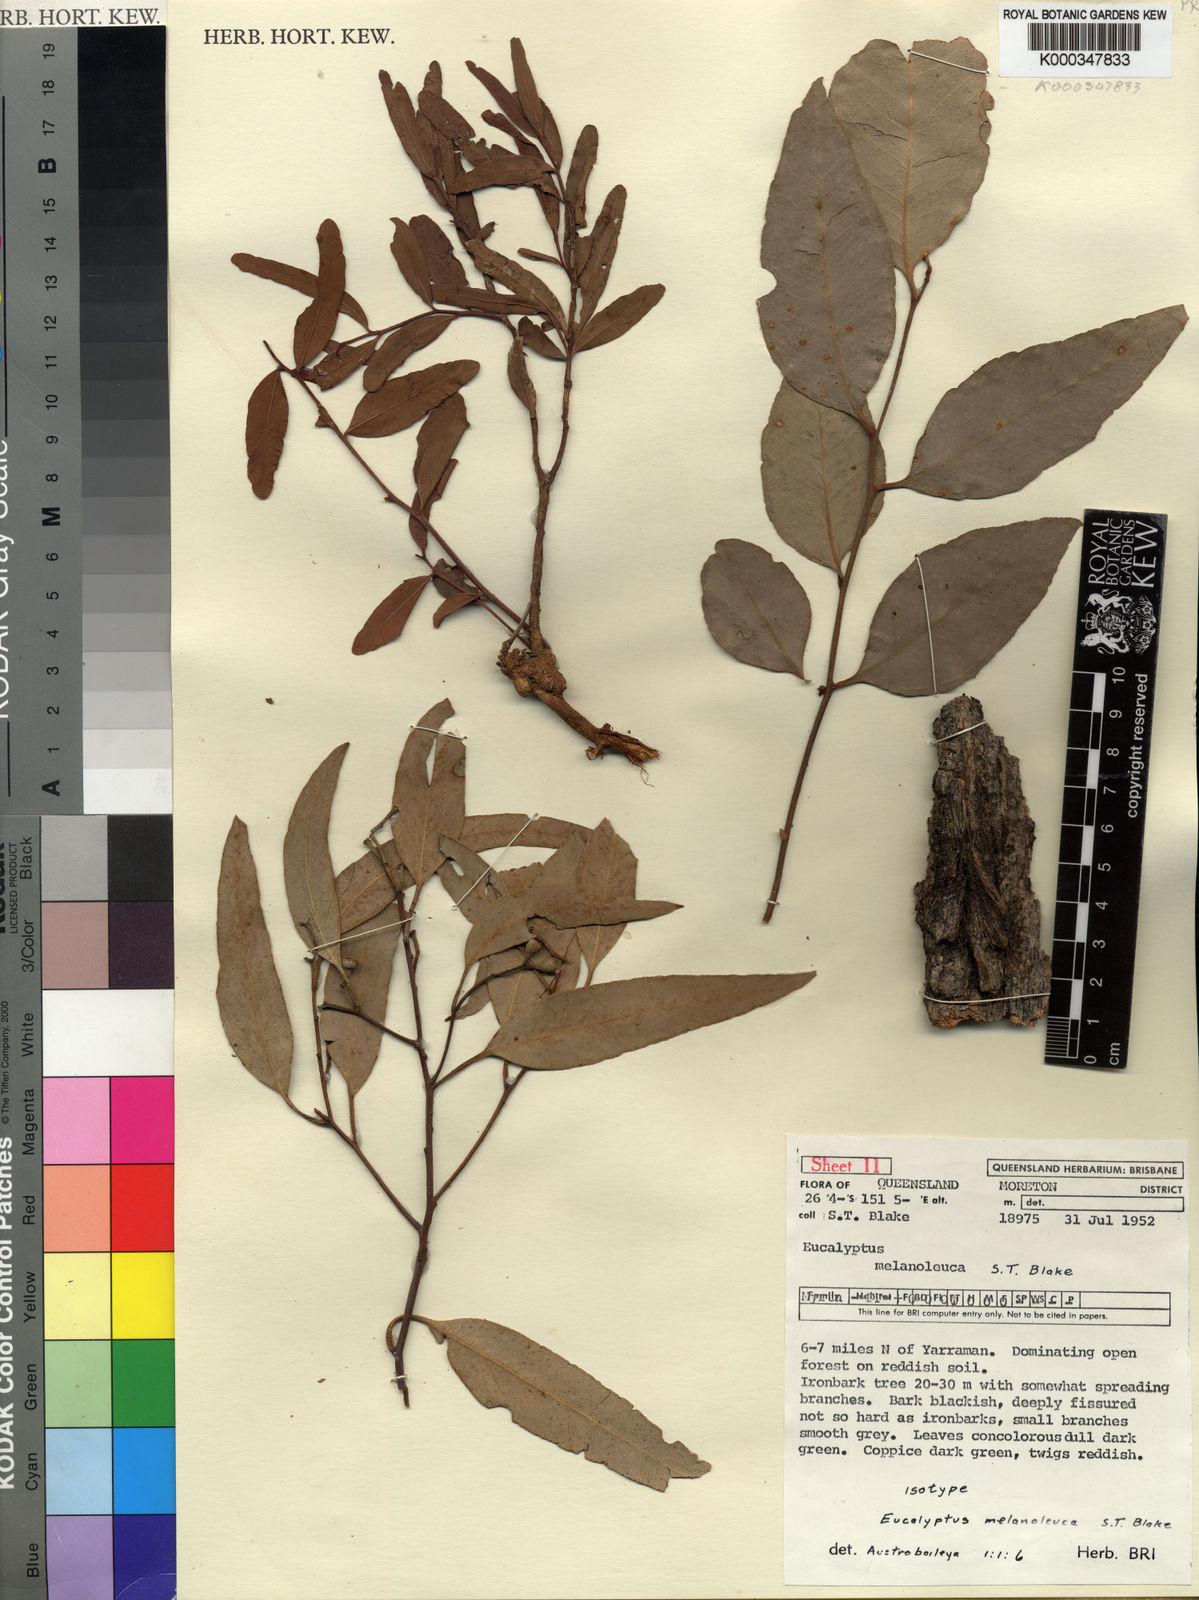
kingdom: Plantae
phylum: Tracheophyta
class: Magnoliopsida
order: Myrtales
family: Myrtaceae
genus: Eucalyptus
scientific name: Eucalyptus melanoleuca
